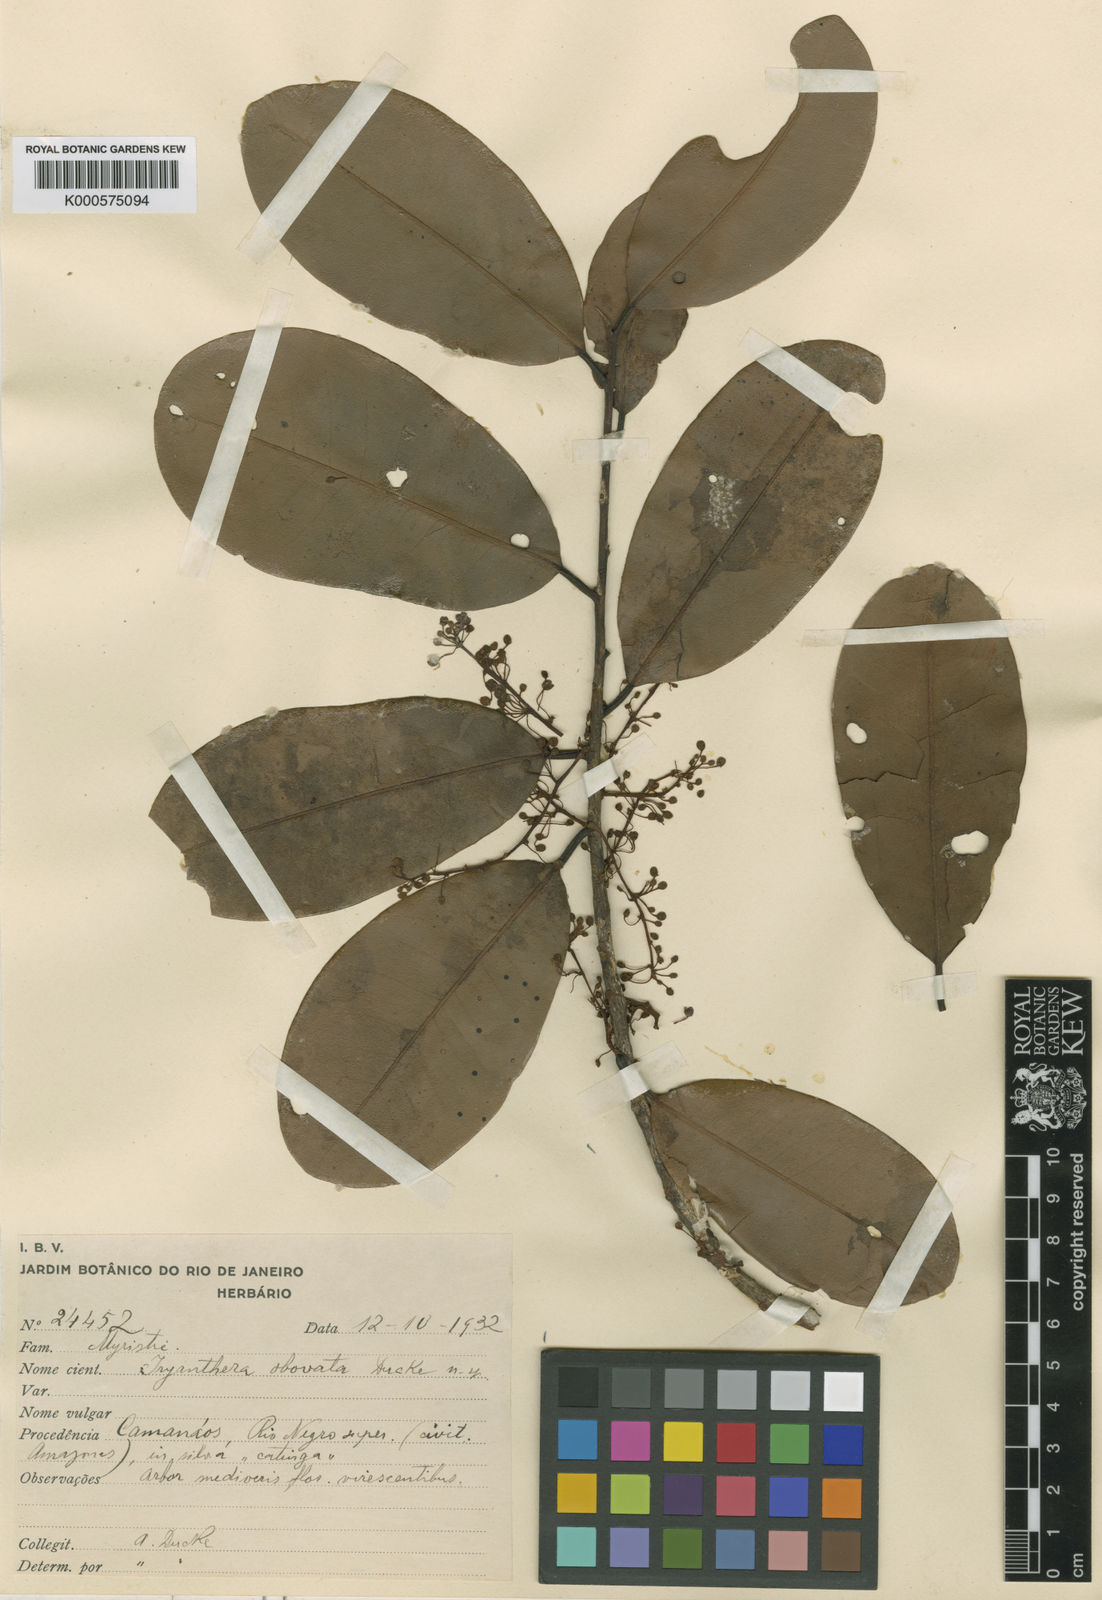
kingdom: Plantae
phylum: Tracheophyta
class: Magnoliopsida
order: Magnoliales
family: Myristicaceae
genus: Iryanthera
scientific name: Iryanthera obovata
